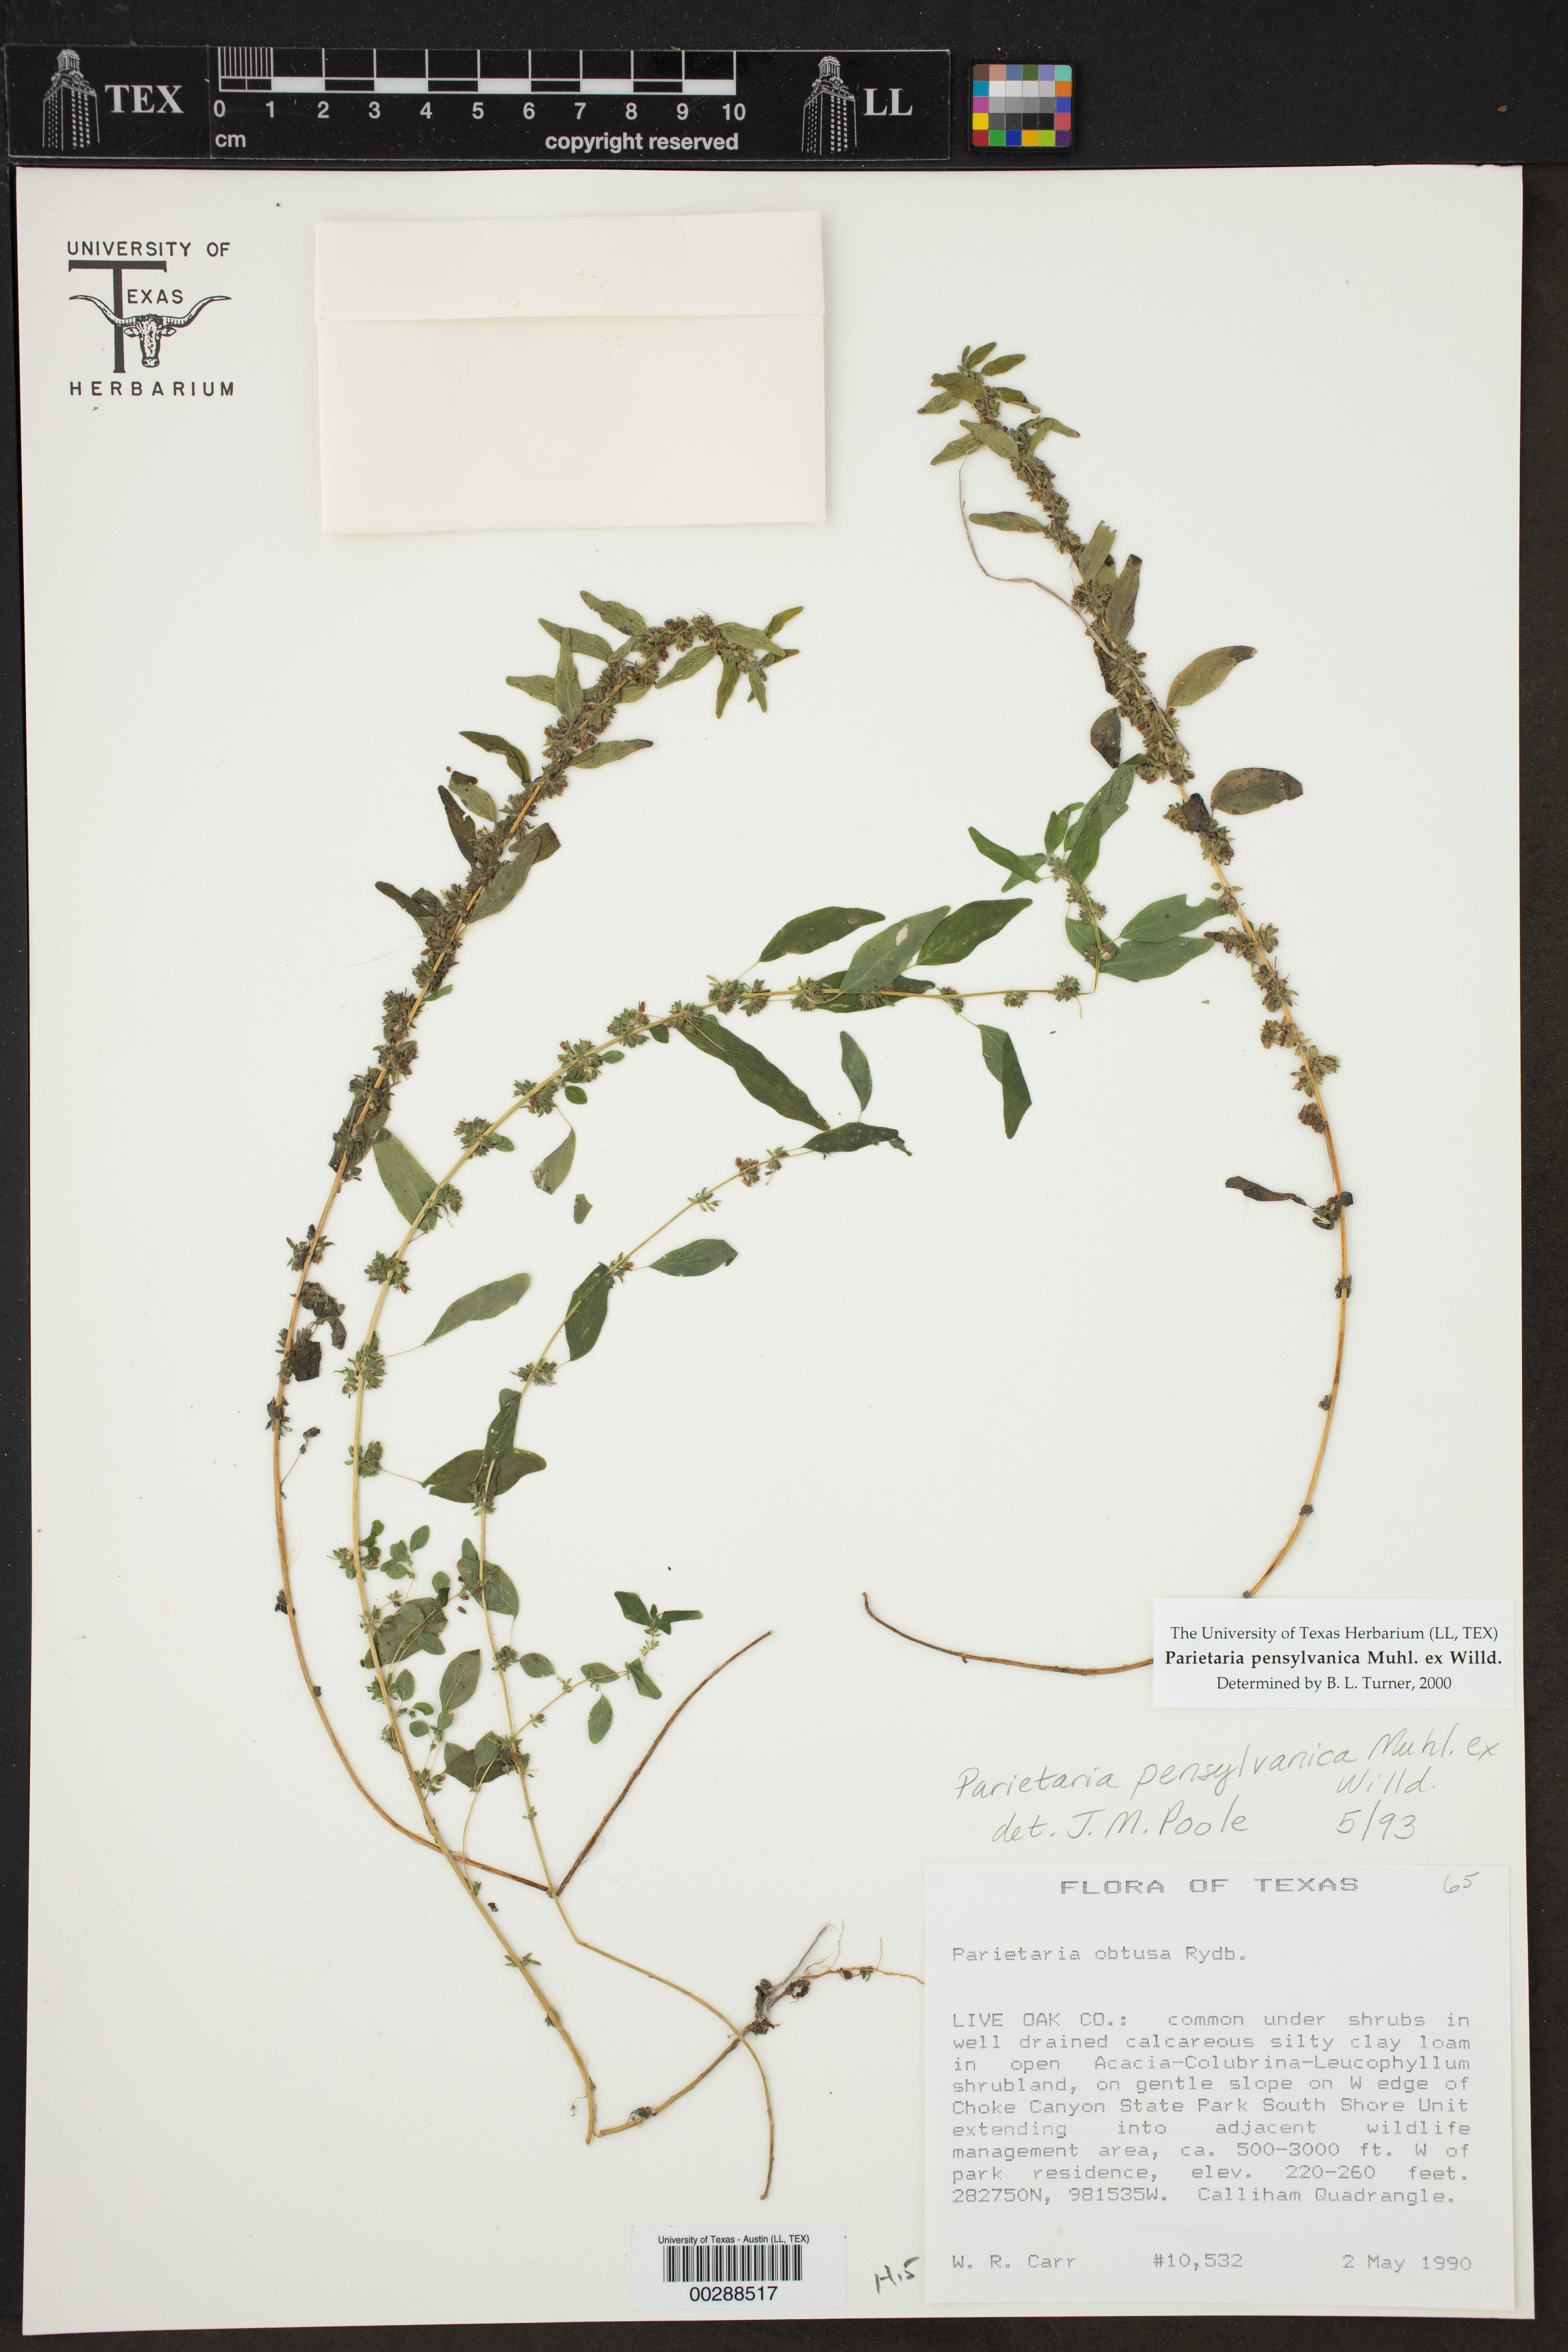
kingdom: Plantae
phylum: Tracheophyta
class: Magnoliopsida
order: Rosales
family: Urticaceae
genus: Parietaria
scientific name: Parietaria pensylvanica
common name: Pennsylvania pellitory
